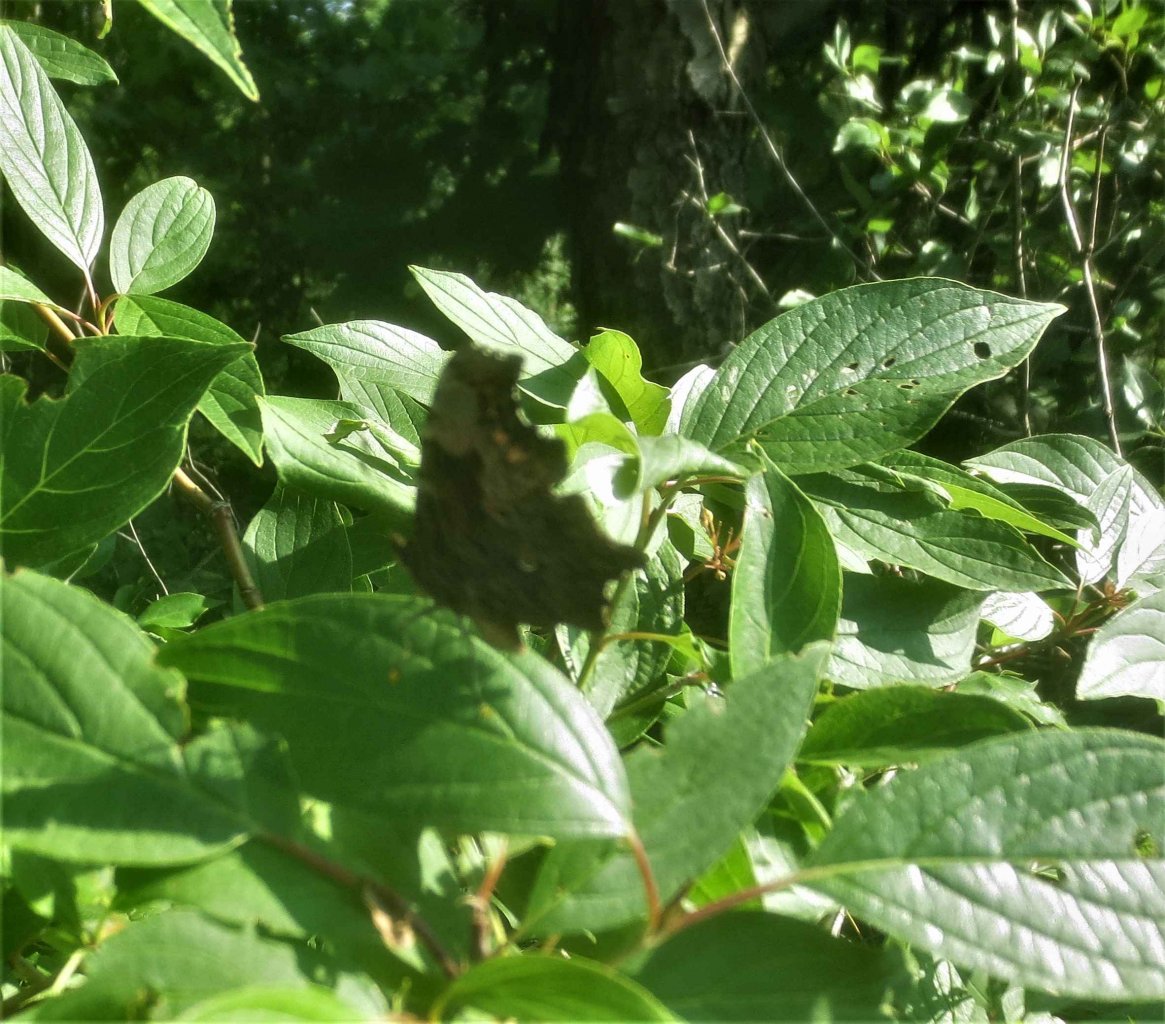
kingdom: Animalia
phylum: Arthropoda
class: Insecta
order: Lepidoptera
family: Nymphalidae
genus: Polygonia
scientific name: Polygonia progne
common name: Gray Comma
